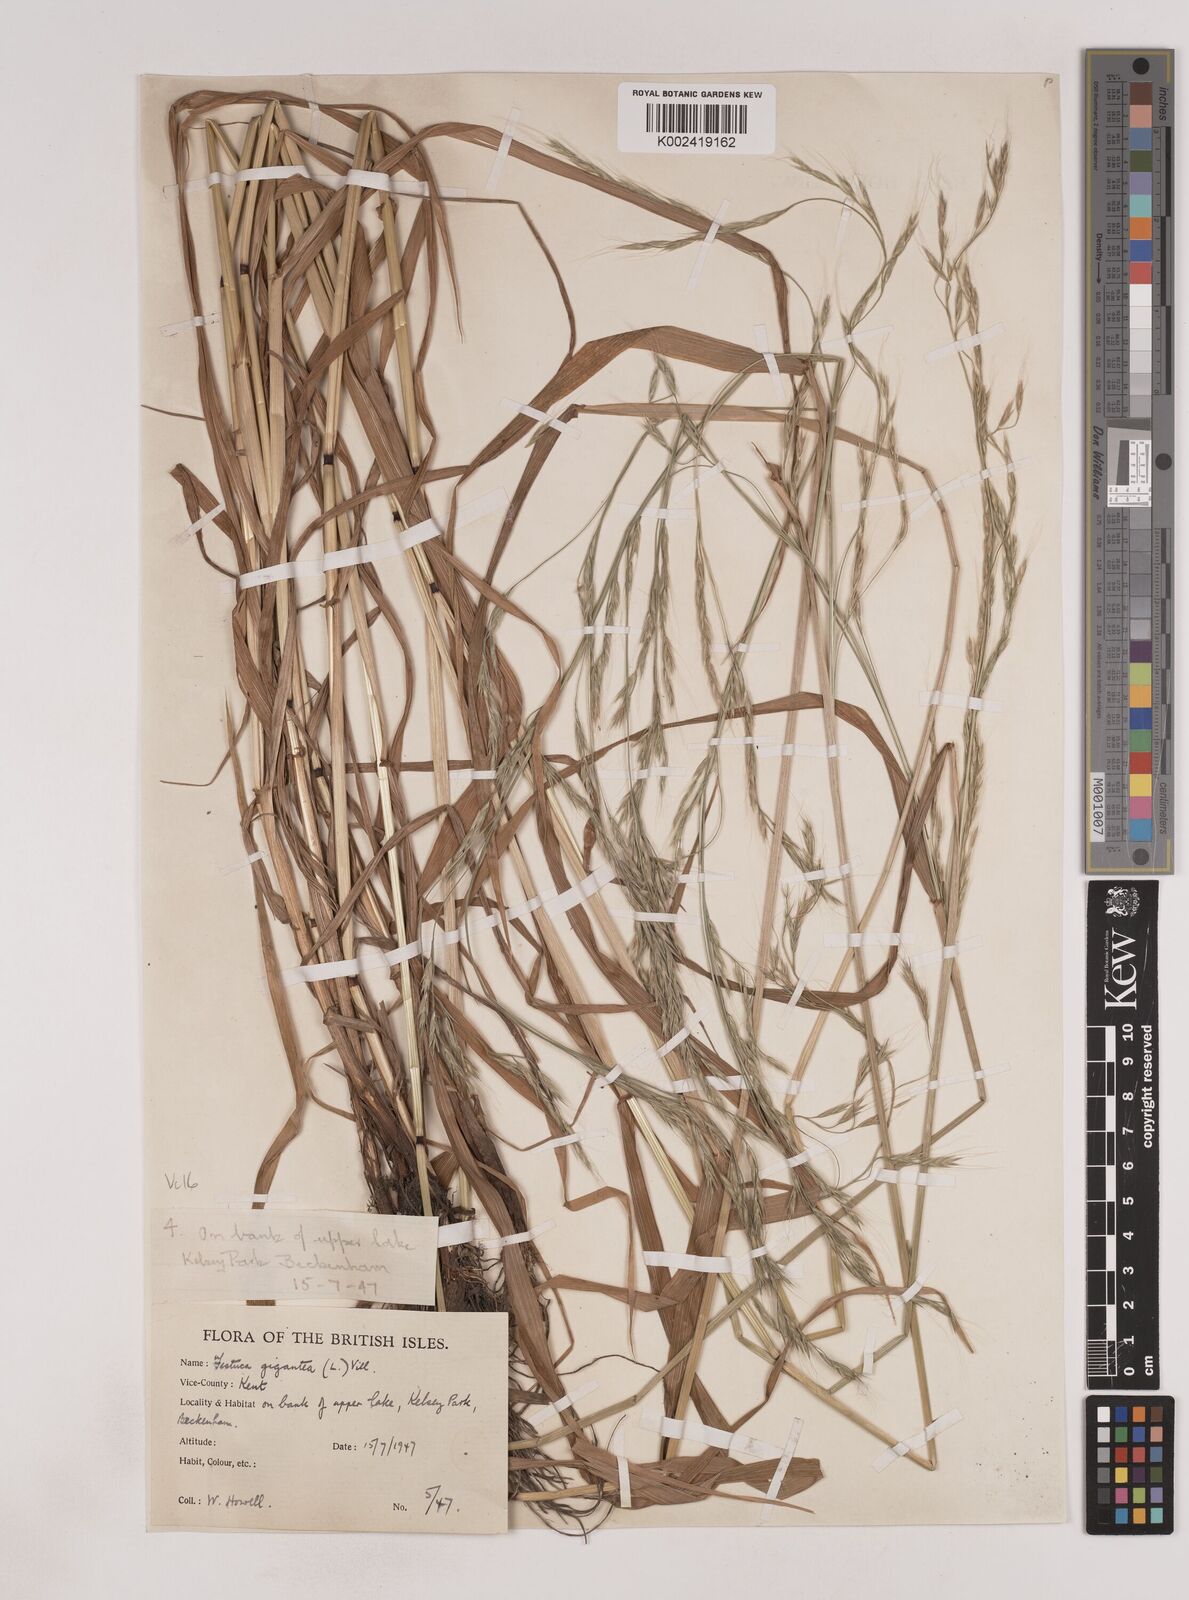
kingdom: Plantae
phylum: Tracheophyta
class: Liliopsida
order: Poales
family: Poaceae
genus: Lolium
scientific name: Lolium giganteum
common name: Giant fescue
